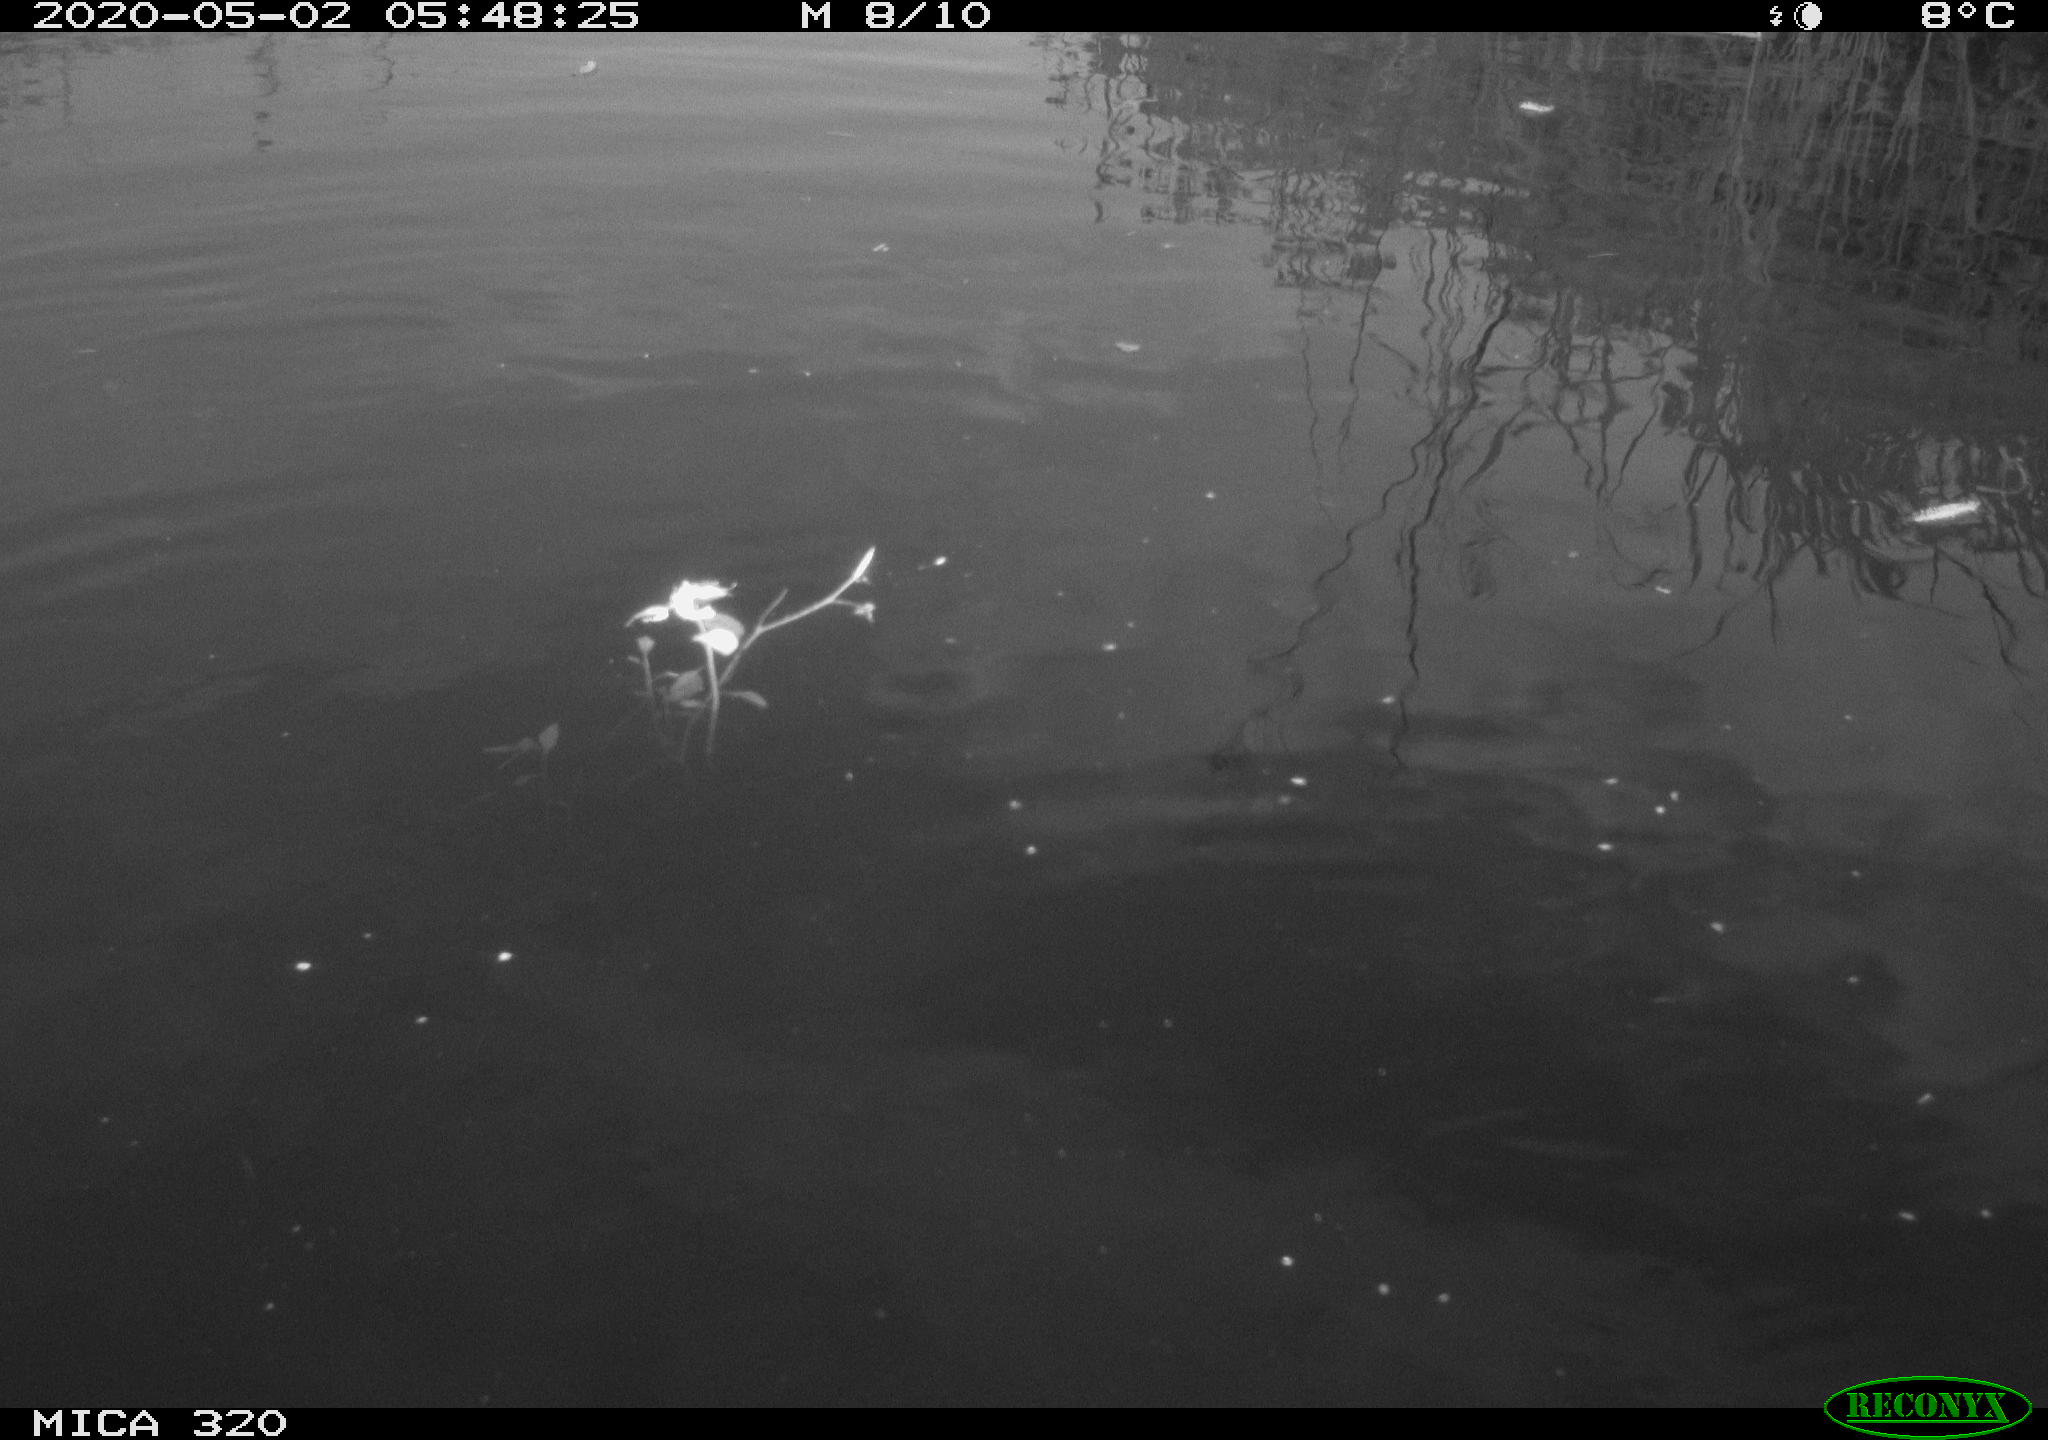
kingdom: Animalia
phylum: Chordata
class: Aves
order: Anseriformes
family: Anatidae
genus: Anas
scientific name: Anas platyrhynchos
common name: Mallard
